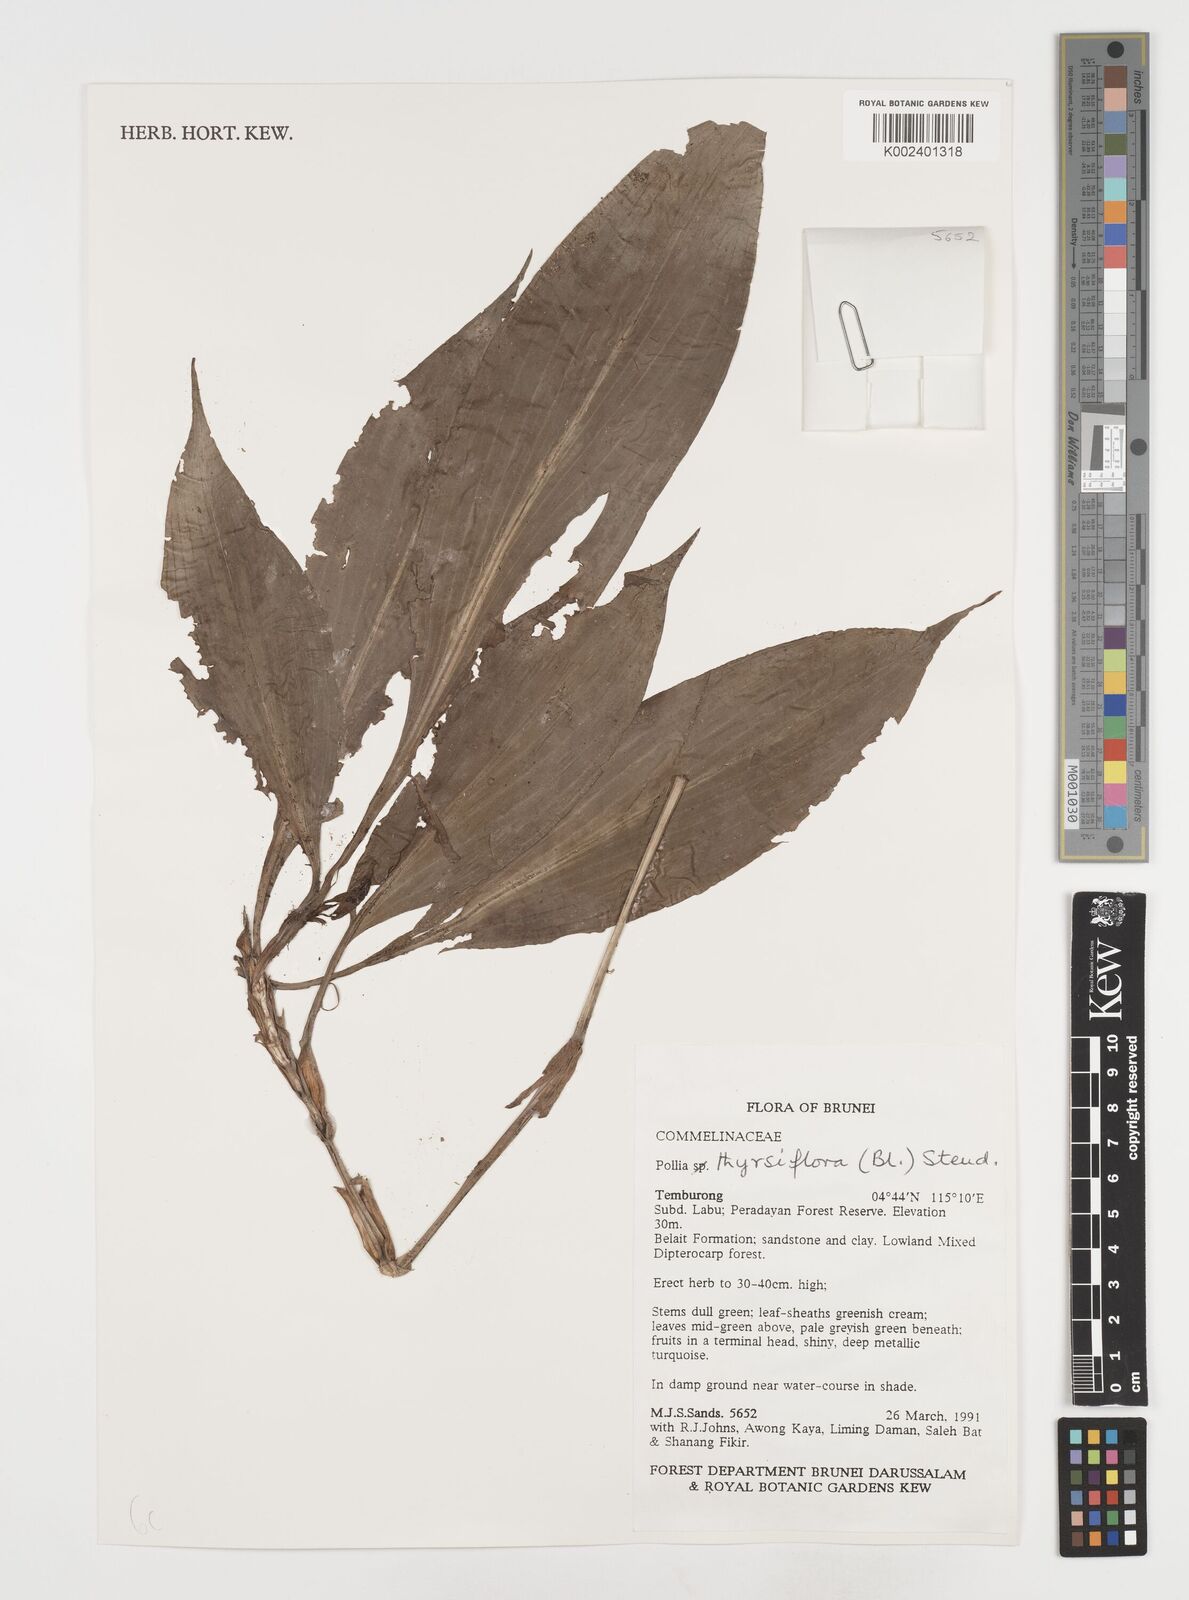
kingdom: Plantae
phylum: Tracheophyta
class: Liliopsida
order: Commelinales
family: Commelinaceae
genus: Pollia
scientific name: Pollia thyrsiflora
